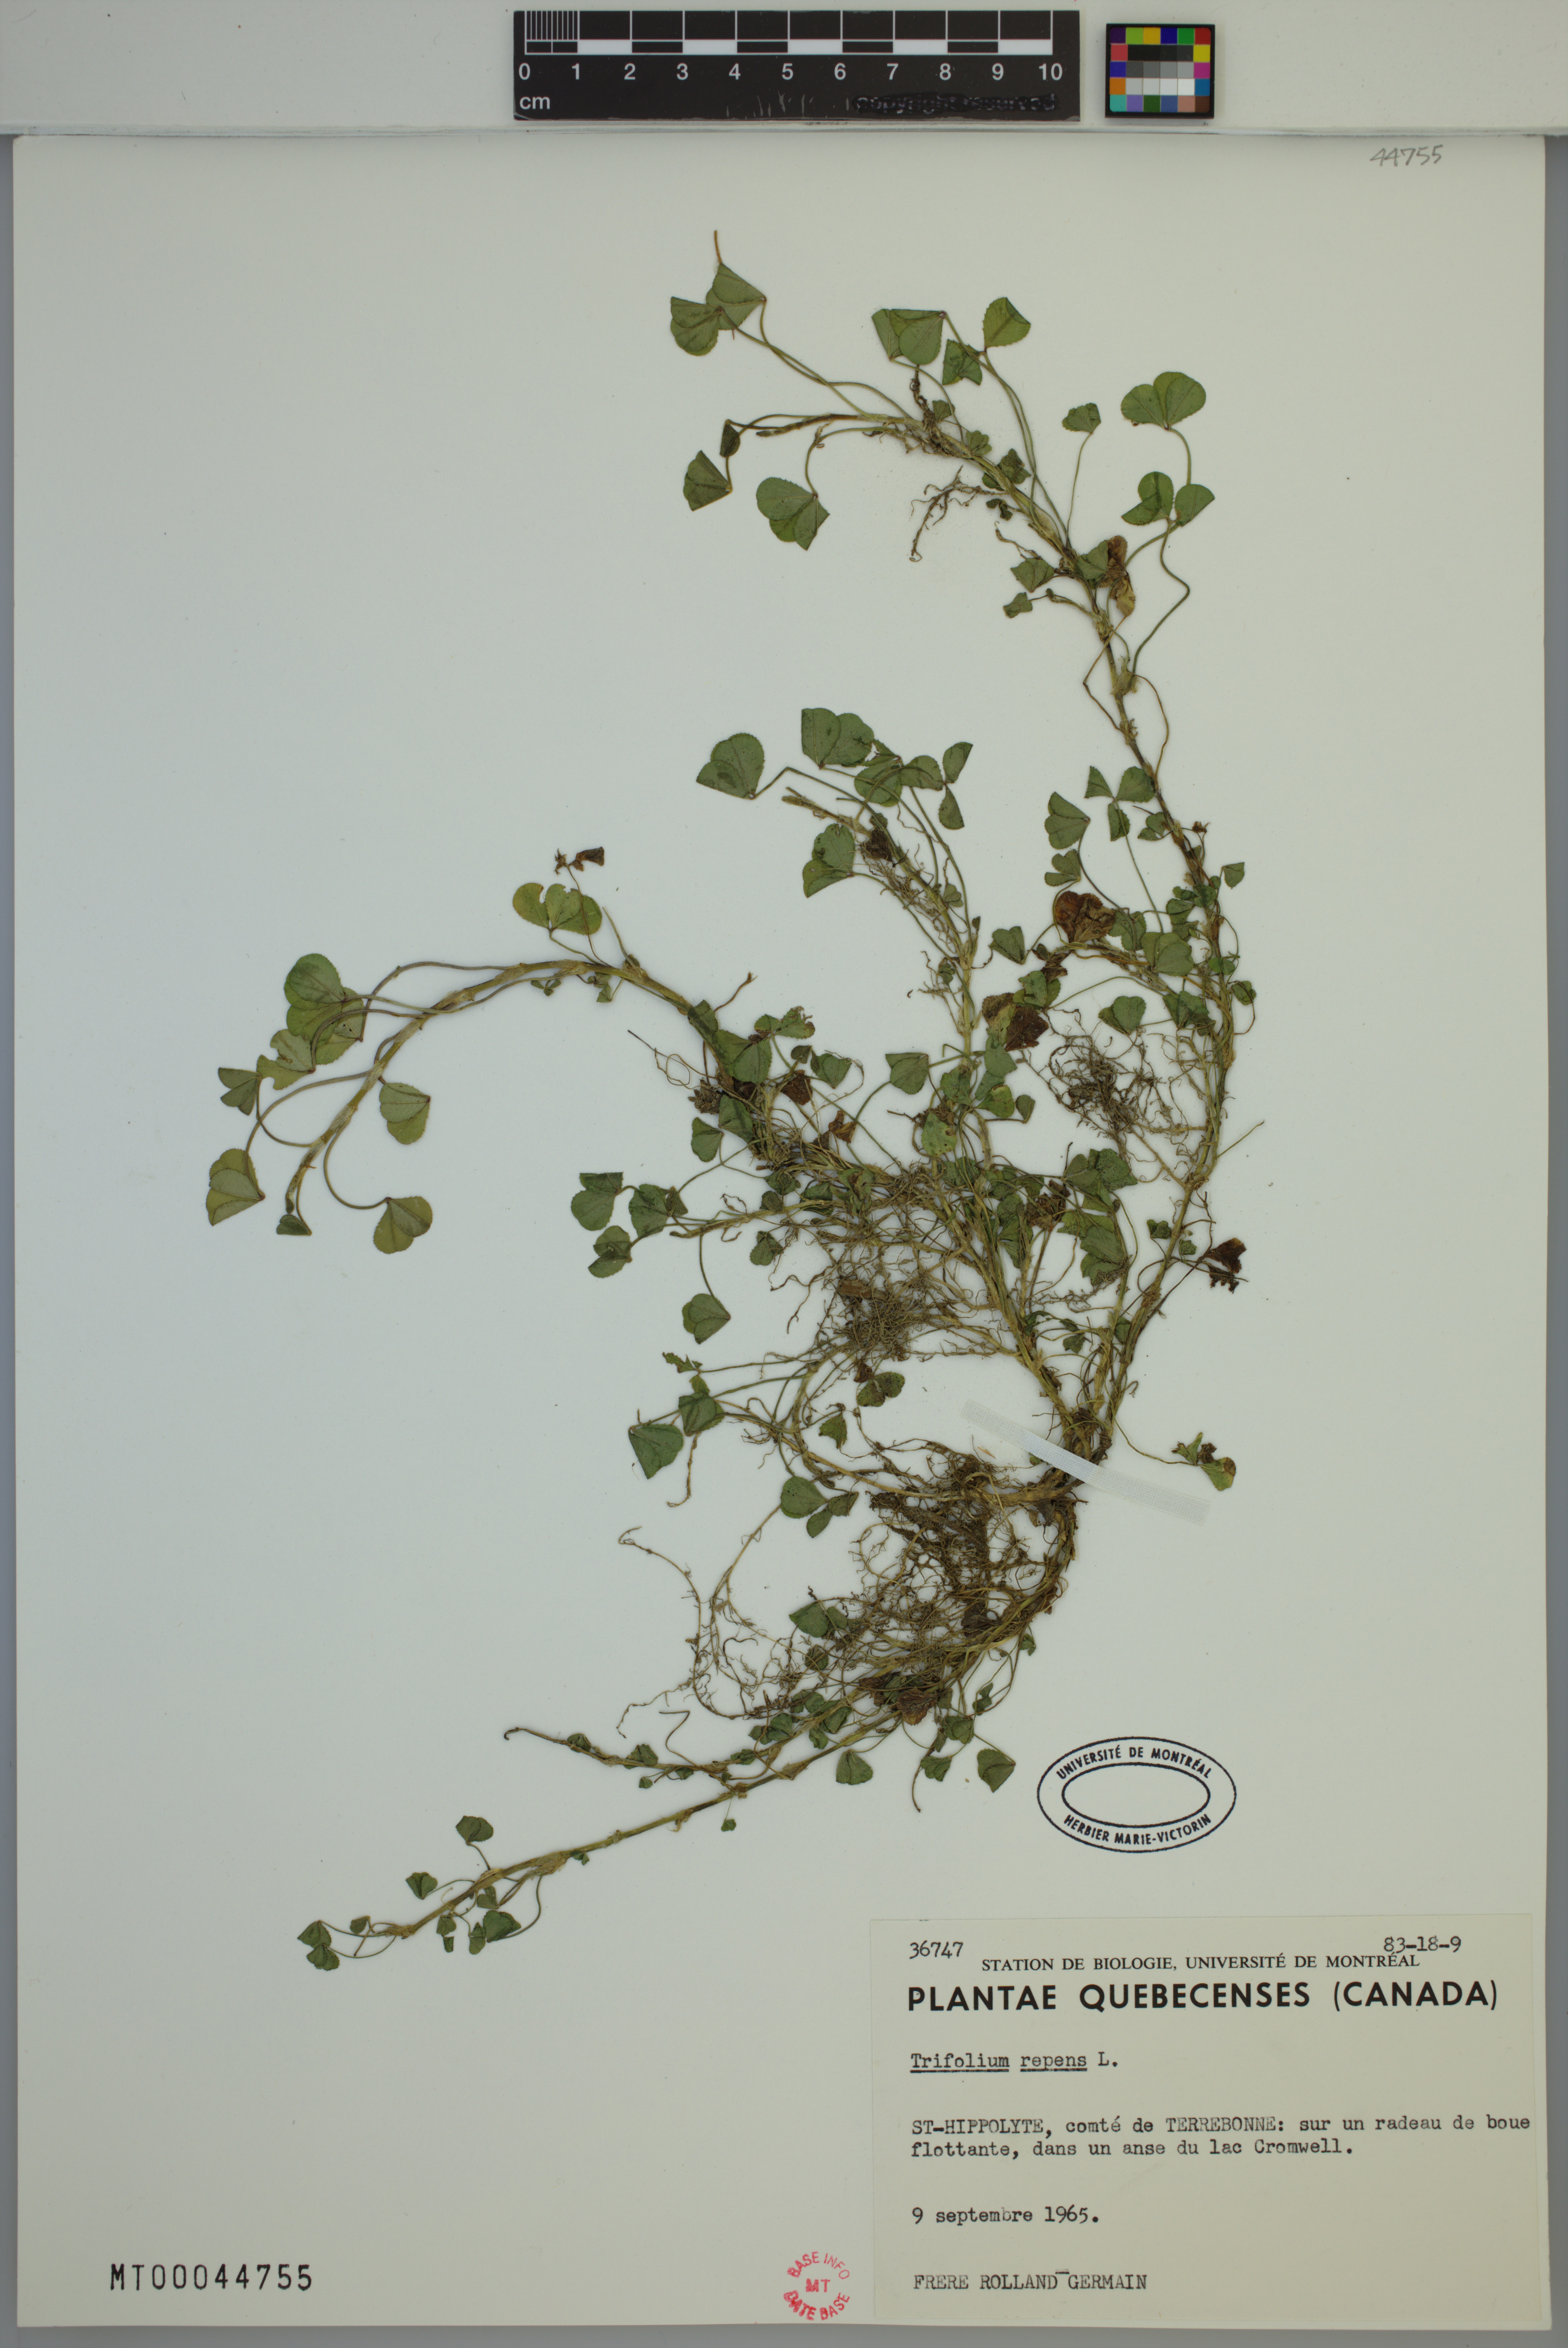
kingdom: Plantae
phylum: Tracheophyta
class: Magnoliopsida
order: Fabales
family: Fabaceae
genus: Trifolium
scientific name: Trifolium repens
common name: White clover
